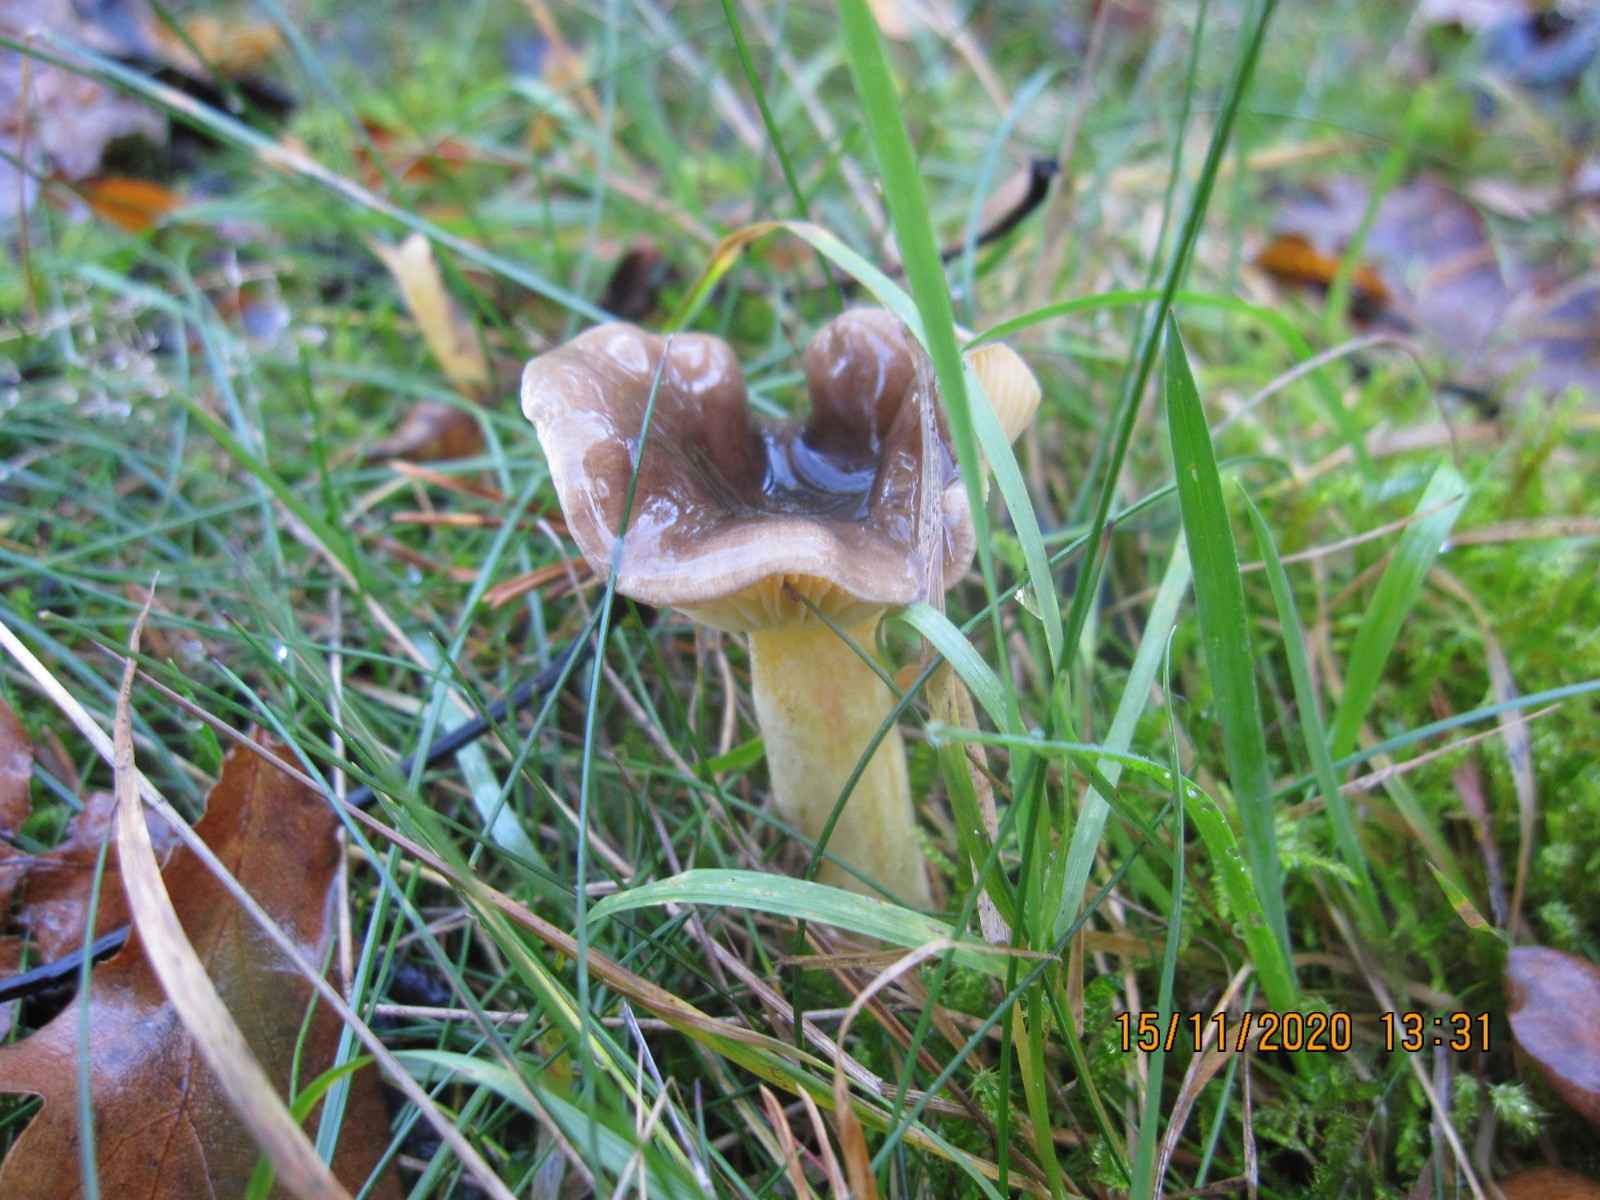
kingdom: Fungi
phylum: Basidiomycota
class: Agaricomycetes
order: Agaricales
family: Hygrophoraceae
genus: Hygrophorus
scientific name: Hygrophorus hypothejus
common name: frost-sneglehat
